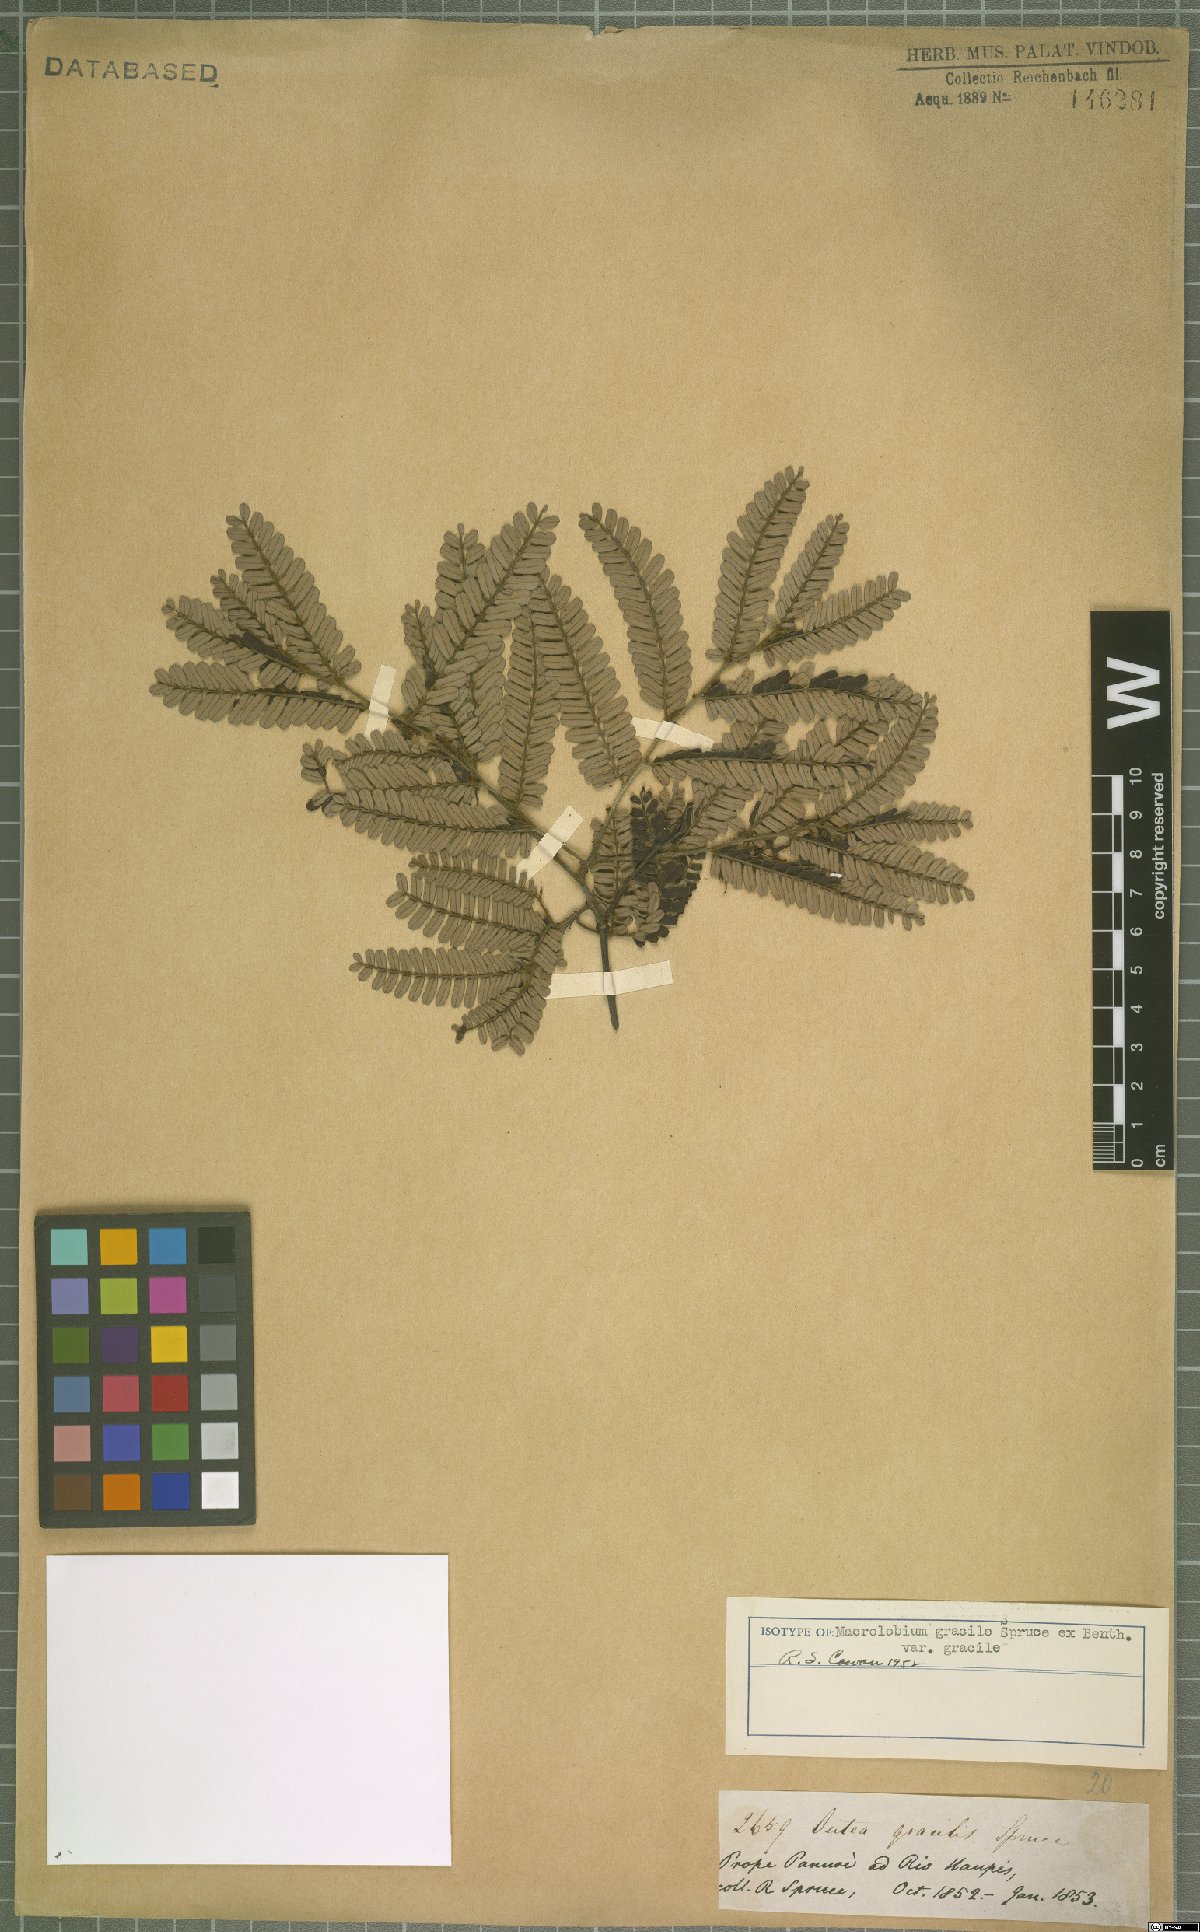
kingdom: Plantae
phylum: Tracheophyta
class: Magnoliopsida
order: Fabales
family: Fabaceae
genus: Macrolobium
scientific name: Macrolobium gracile
